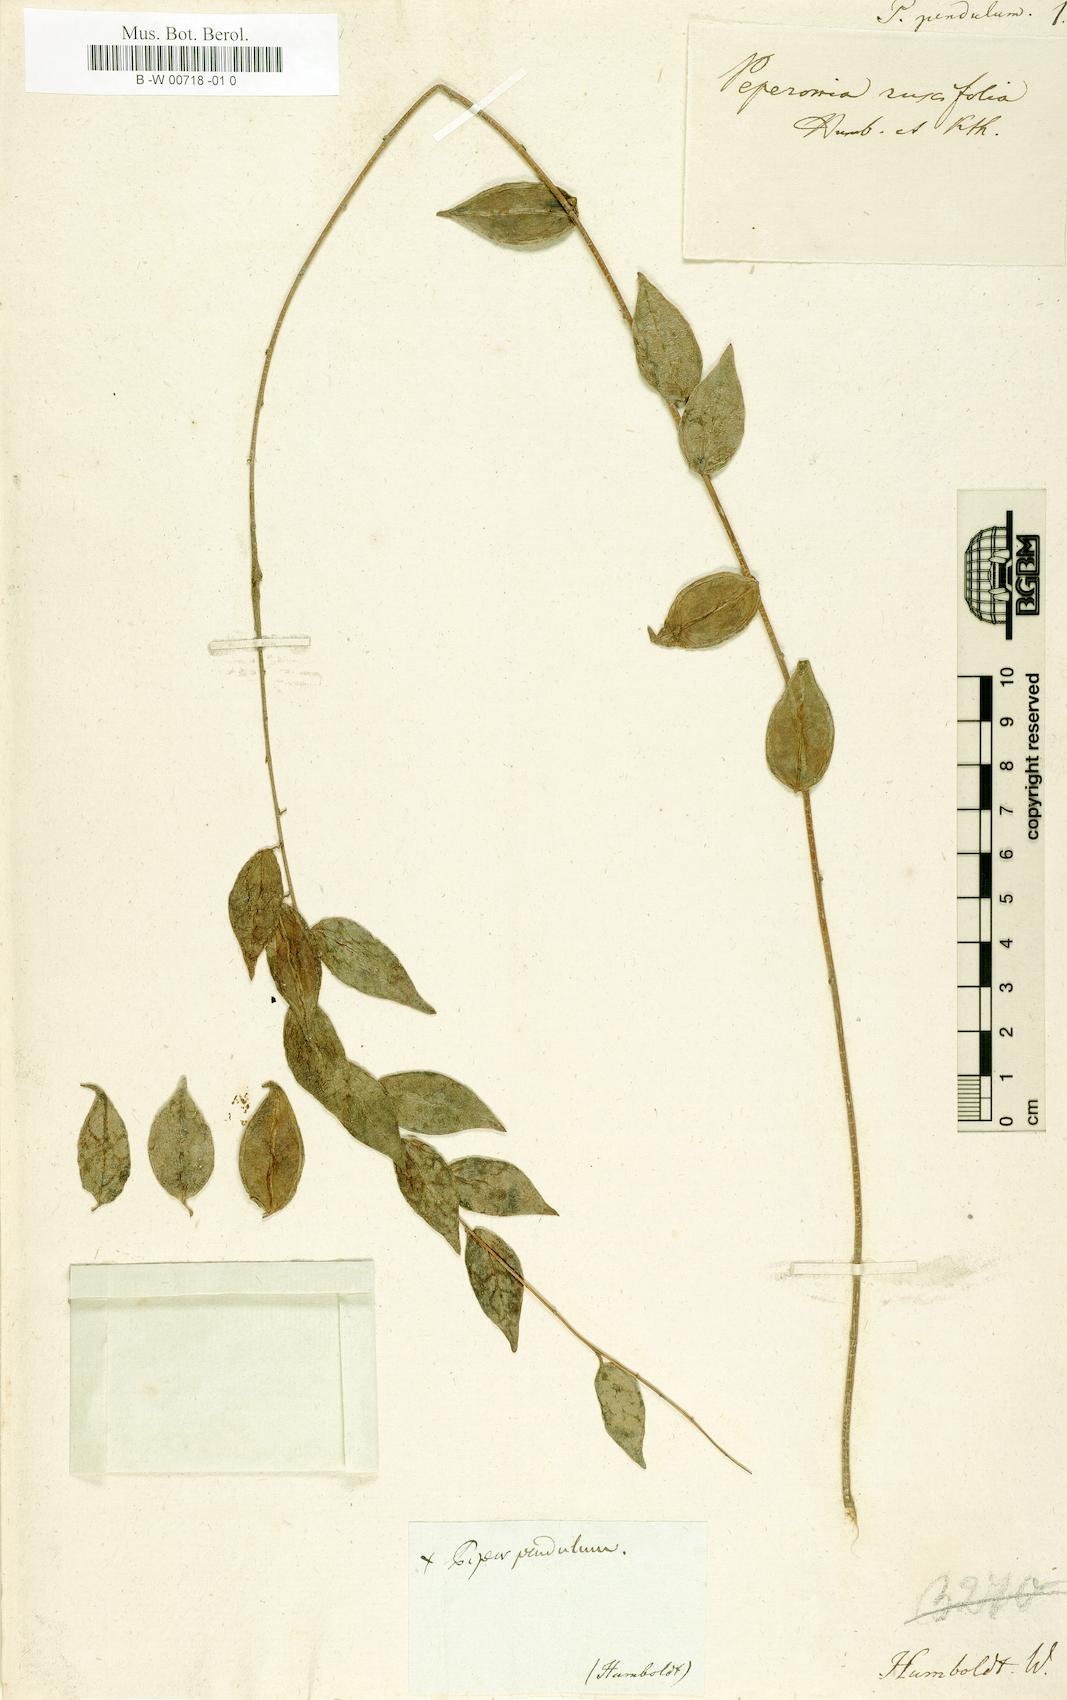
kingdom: Plantae
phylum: Tracheophyta
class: Magnoliopsida
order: Piperales
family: Piperaceae
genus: Piper
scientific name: Piper pendulum
